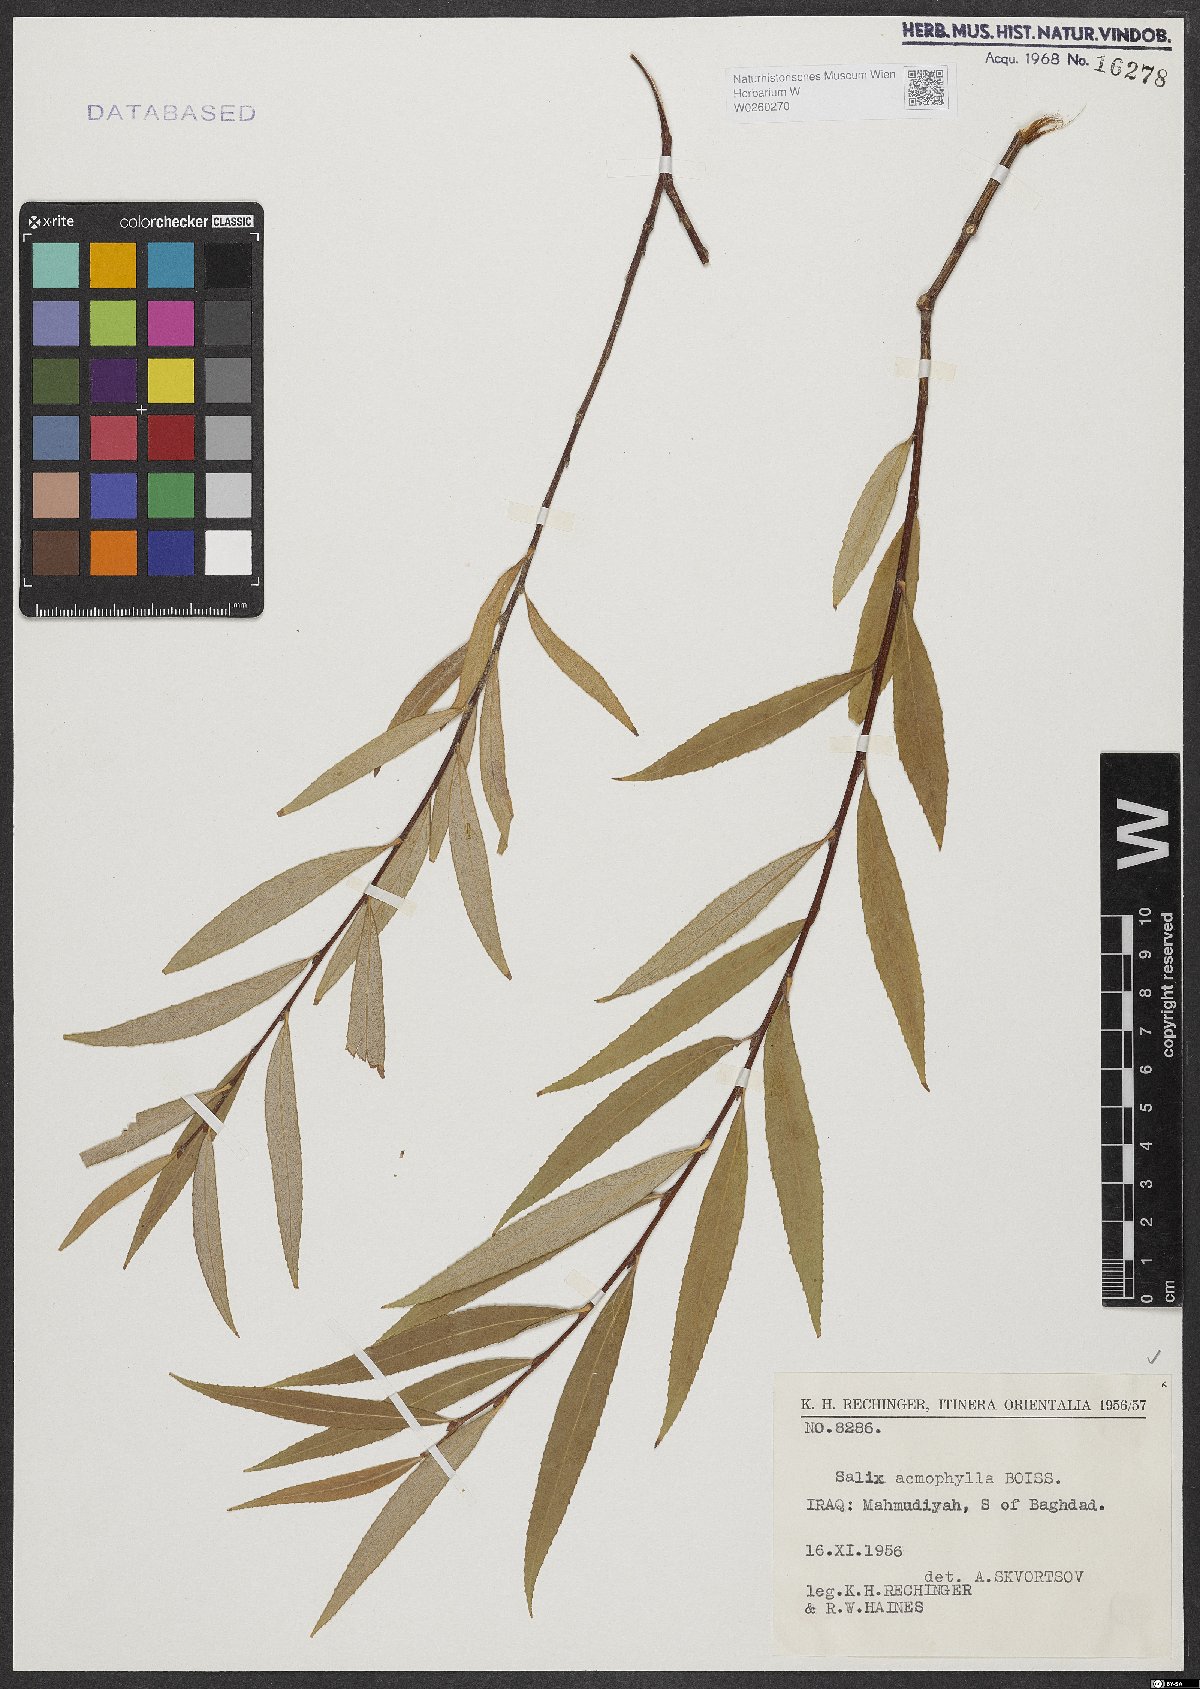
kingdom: Plantae
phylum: Tracheophyta
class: Magnoliopsida
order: Malpighiales
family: Salicaceae
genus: Salix
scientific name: Salix acmophylla
